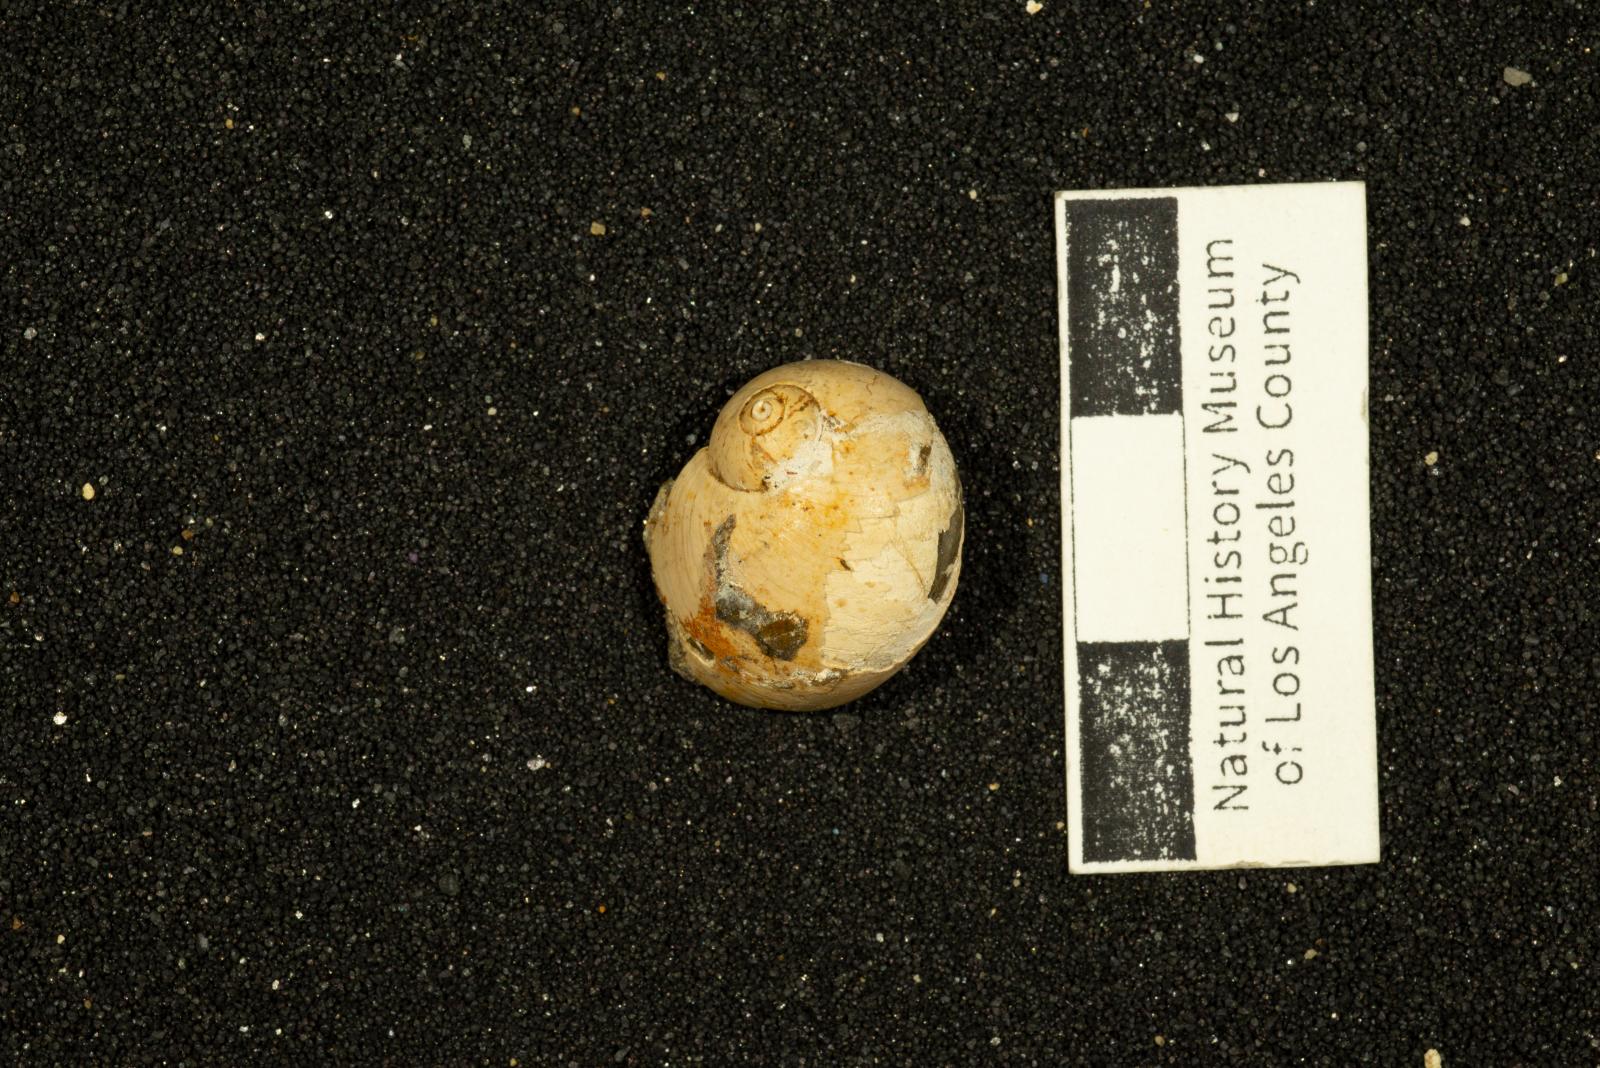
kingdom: Animalia
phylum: Mollusca
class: Gastropoda
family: Gyrodidae
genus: Gyrodes
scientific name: Gyrodes banites
